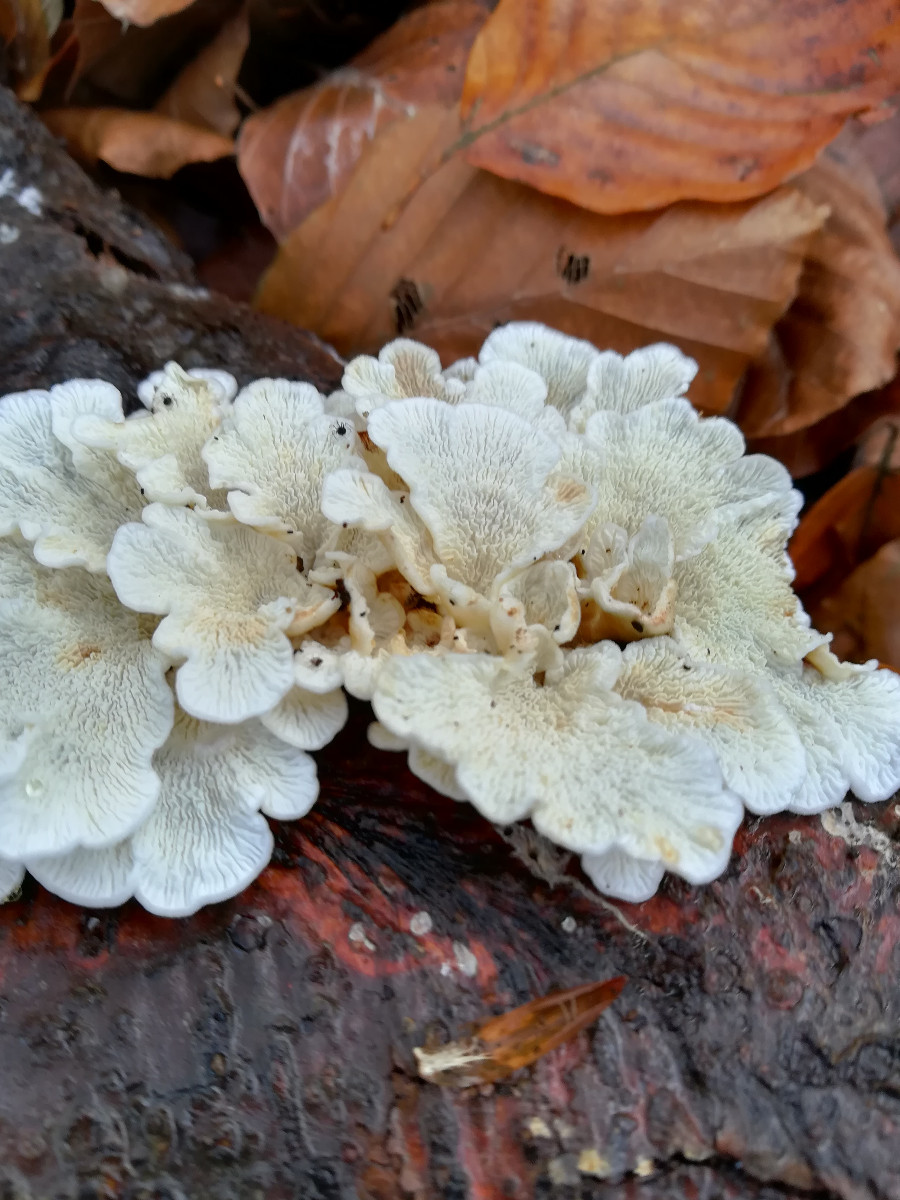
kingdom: Fungi
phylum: Basidiomycota
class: Agaricomycetes
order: Amylocorticiales
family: Amylocorticiaceae
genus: Plicaturopsis
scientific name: Plicaturopsis crispa
